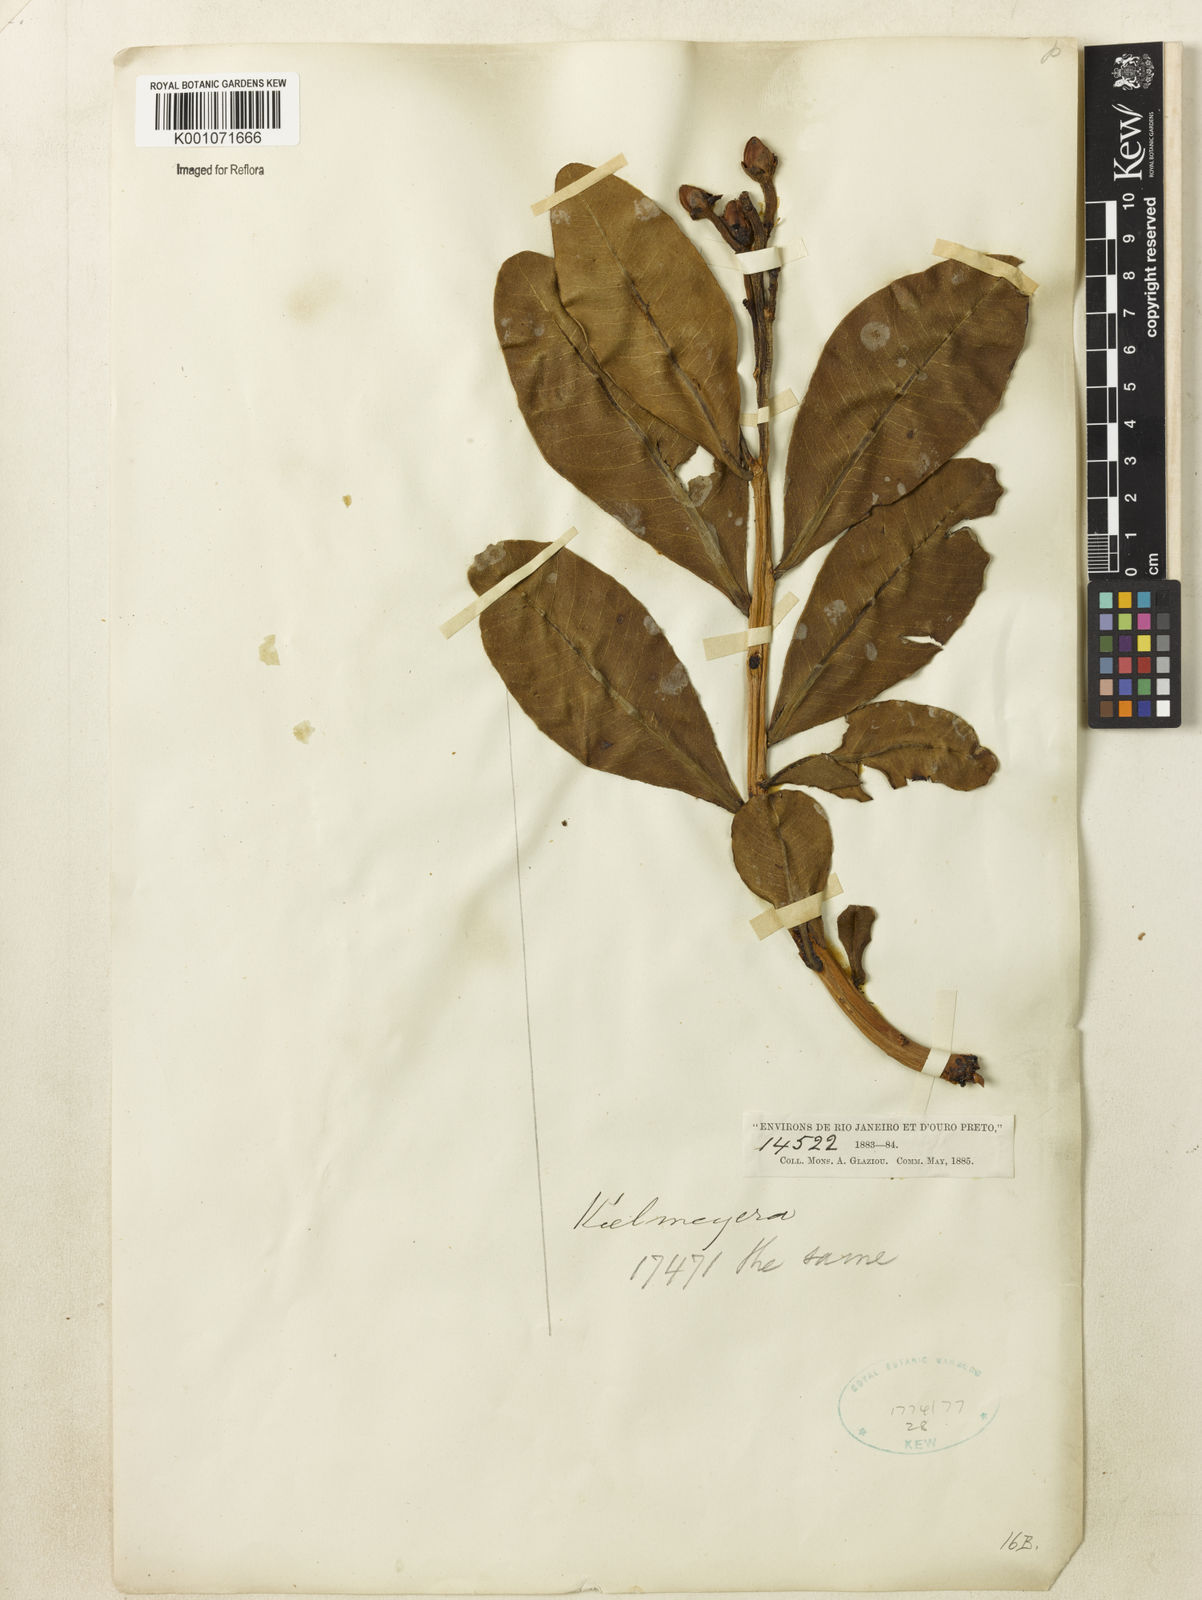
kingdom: Plantae
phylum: Tracheophyta
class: Magnoliopsida
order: Malpighiales
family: Calophyllaceae
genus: Kielmeyera
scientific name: Kielmeyera
